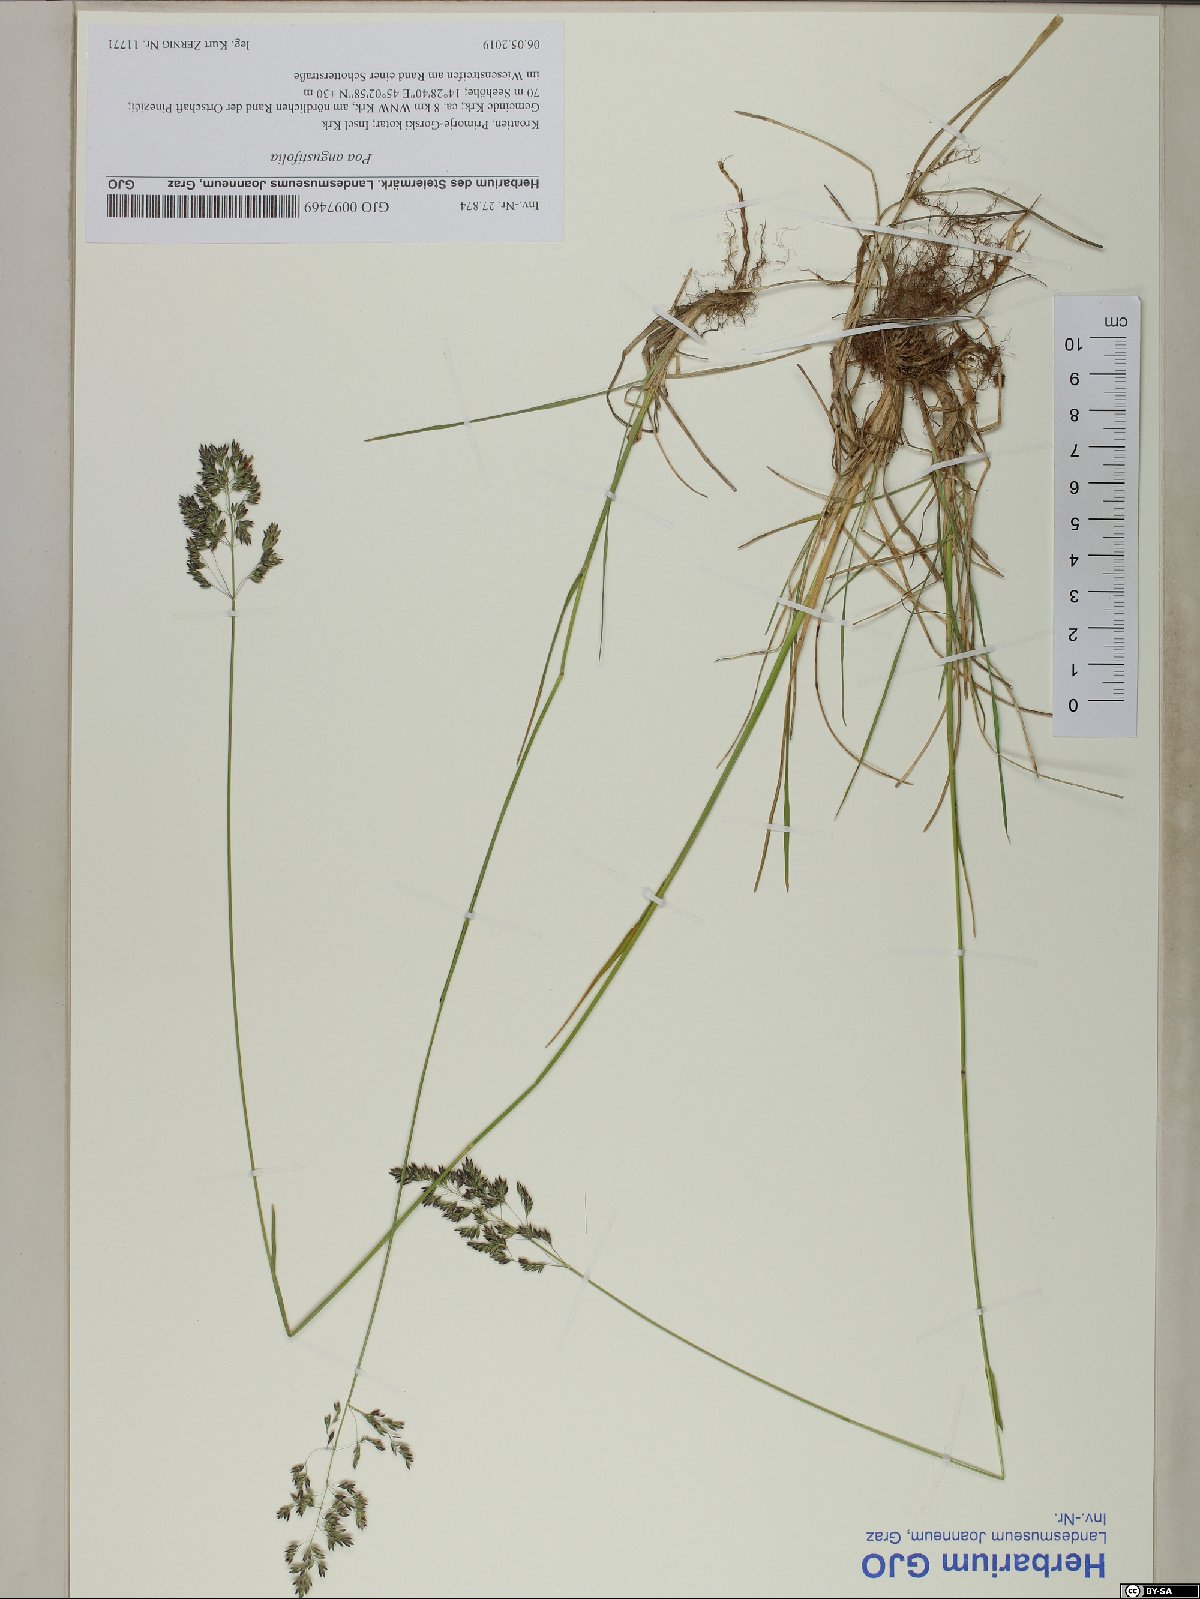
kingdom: Plantae
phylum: Tracheophyta
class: Liliopsida
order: Poales
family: Poaceae
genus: Poa
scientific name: Poa angustifolia
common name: Narrow-leaved meadow-grass
